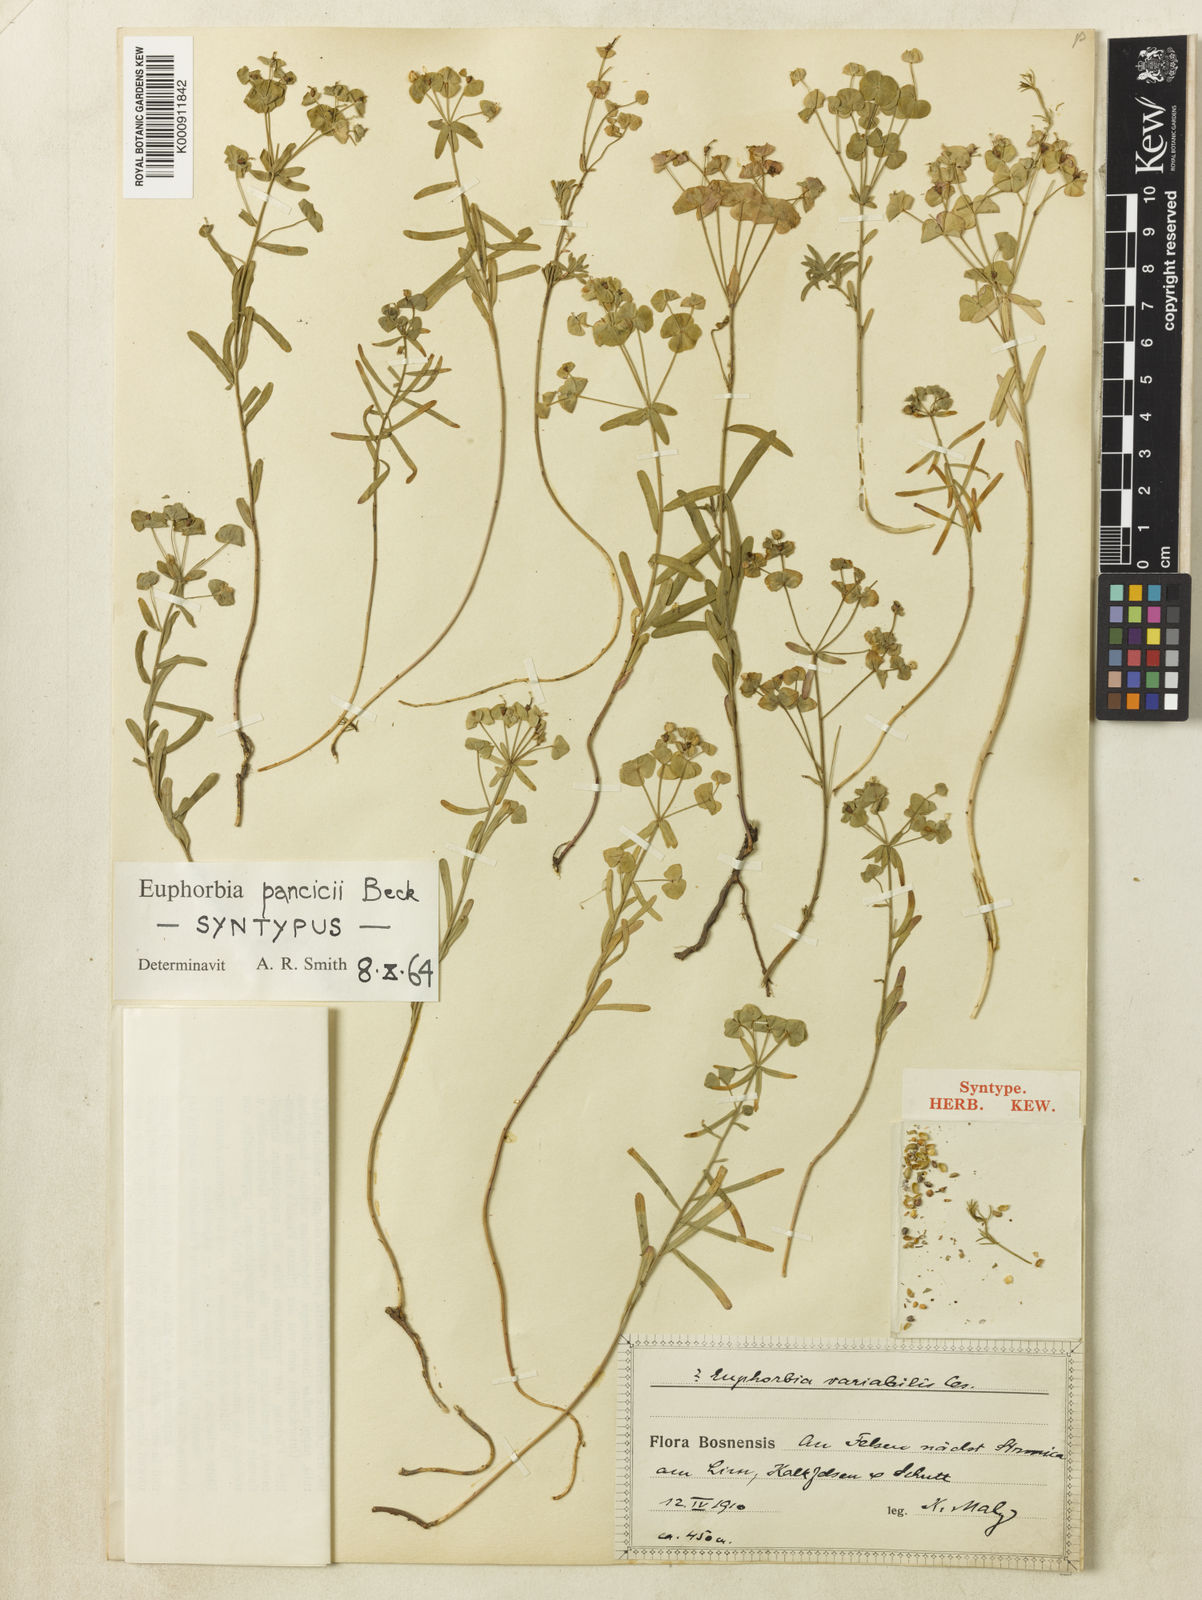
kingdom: Plantae
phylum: Tracheophyta
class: Magnoliopsida
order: Malpighiales
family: Euphorbiaceae
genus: Euphorbia
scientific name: Euphorbia esula
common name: Leafy spurge
